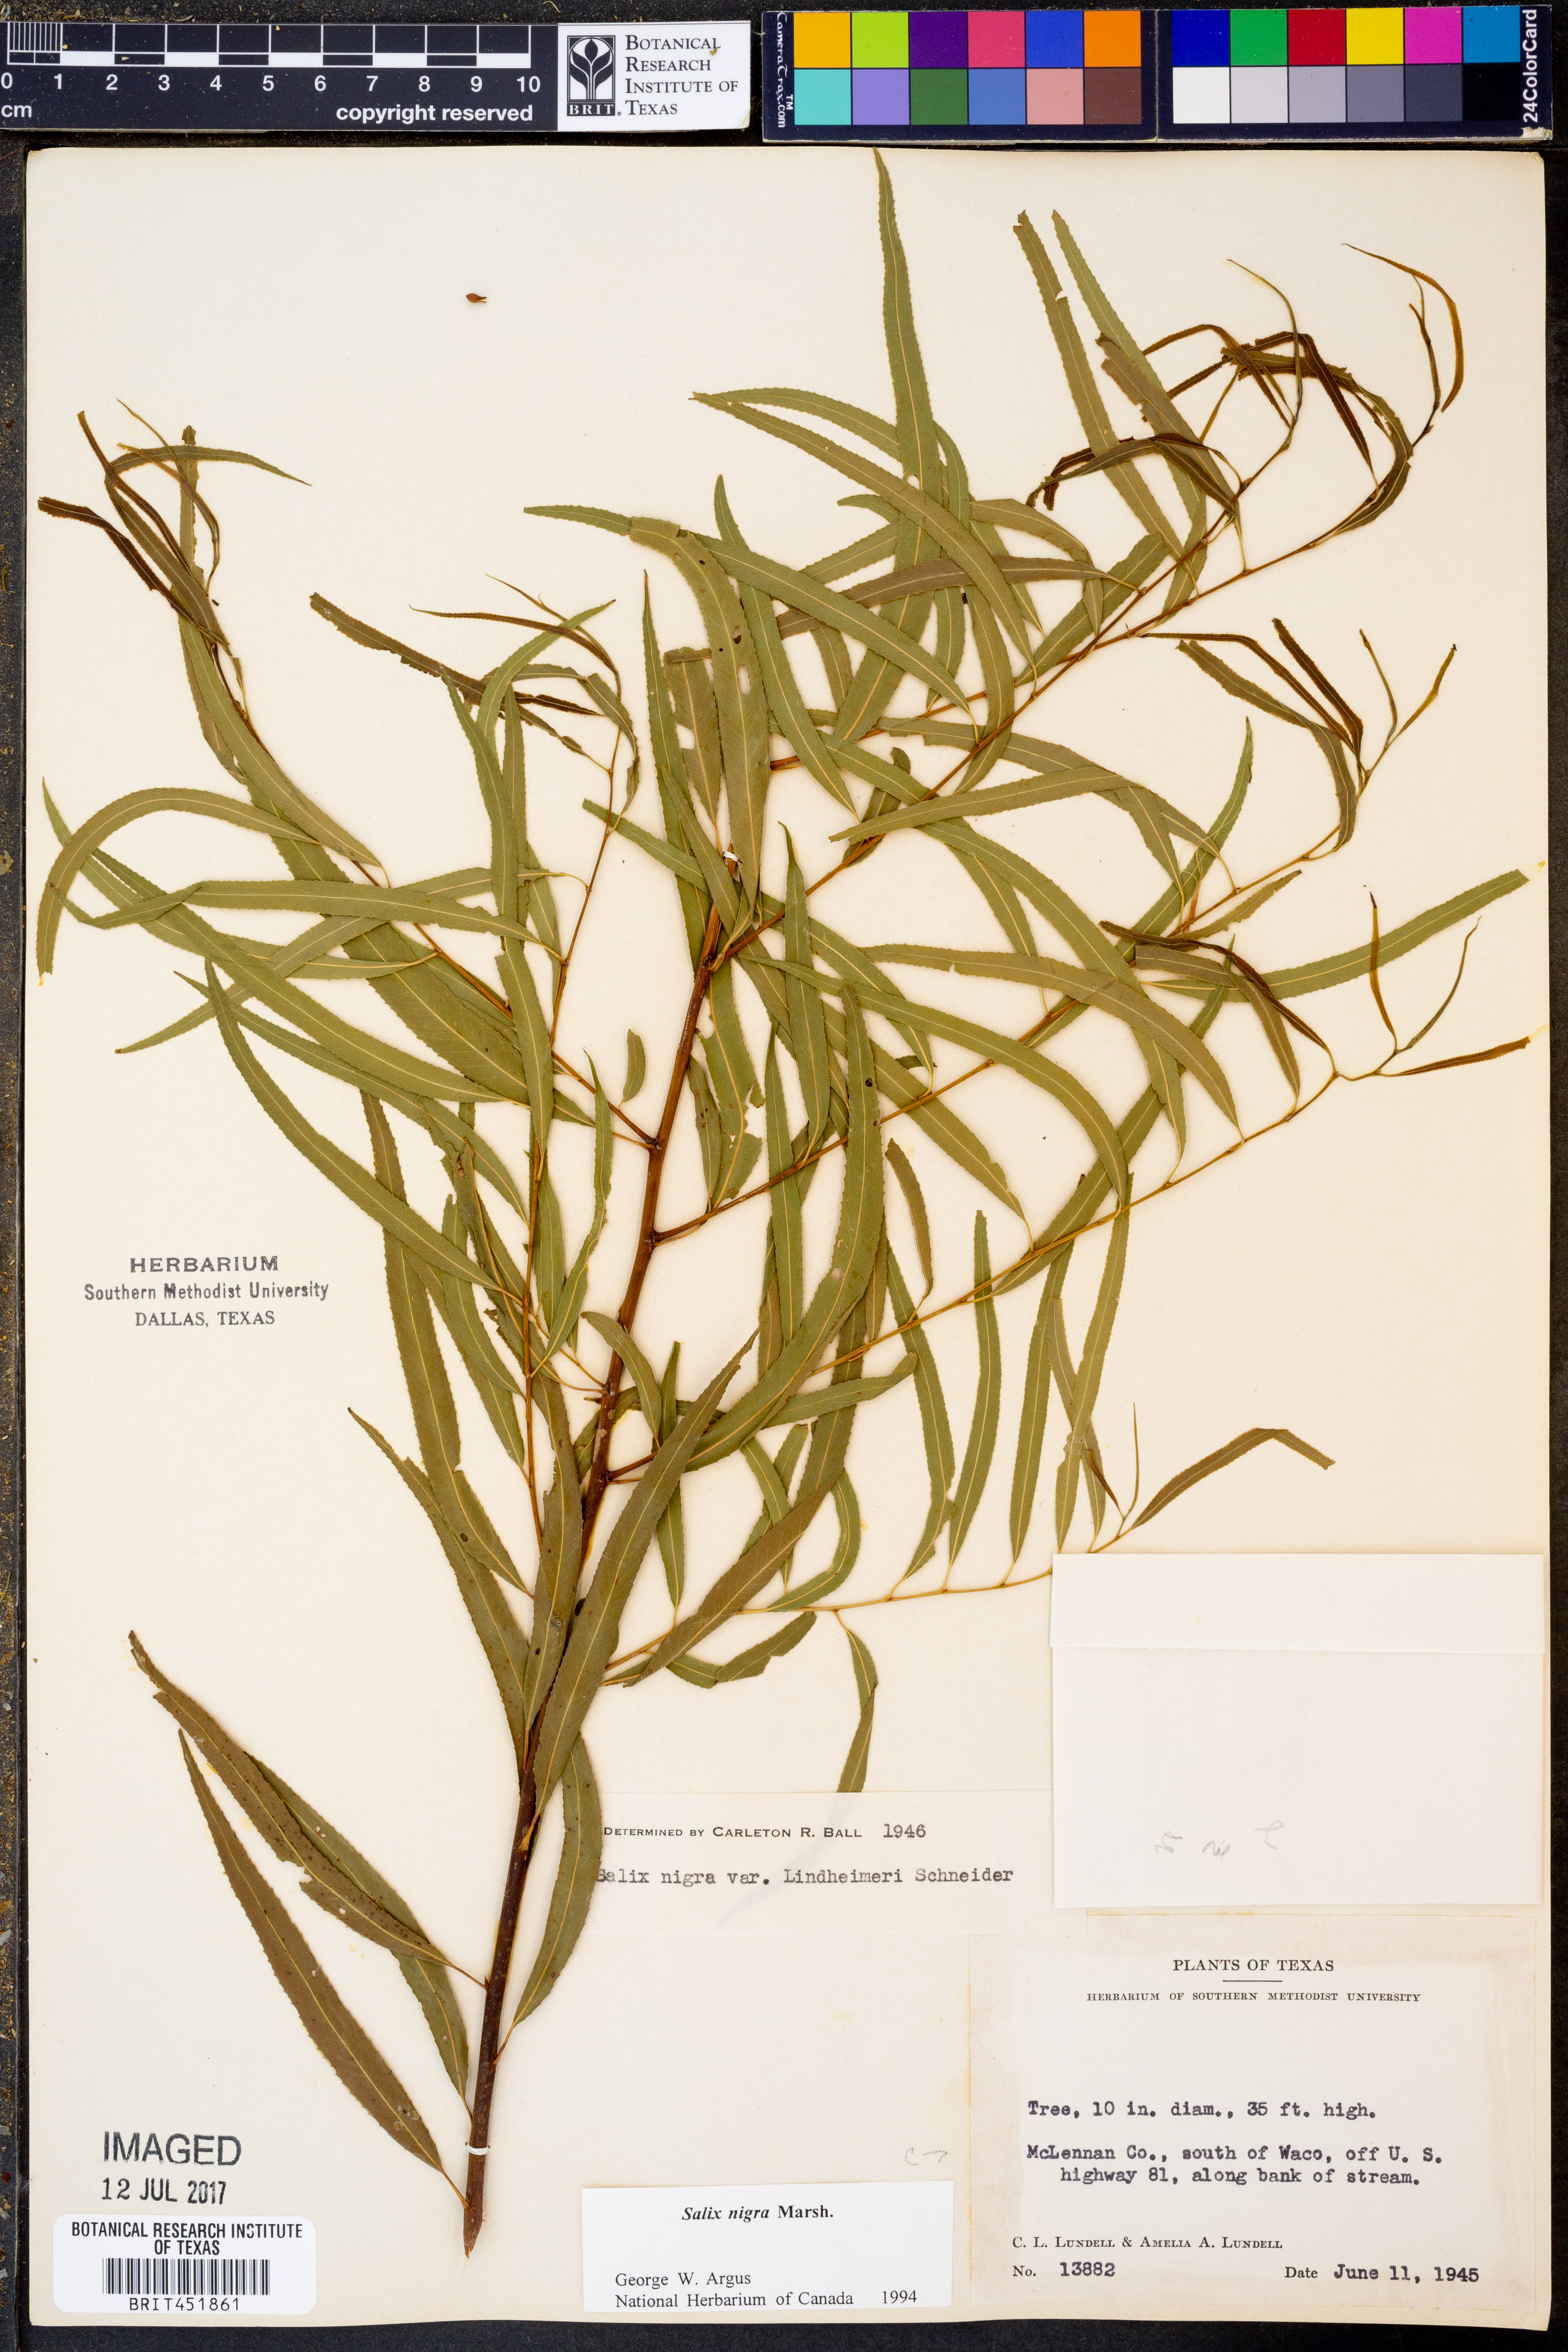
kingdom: Plantae
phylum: Tracheophyta
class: Magnoliopsida
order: Malpighiales
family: Salicaceae
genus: Salix
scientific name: Salix nigra
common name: Black willow
